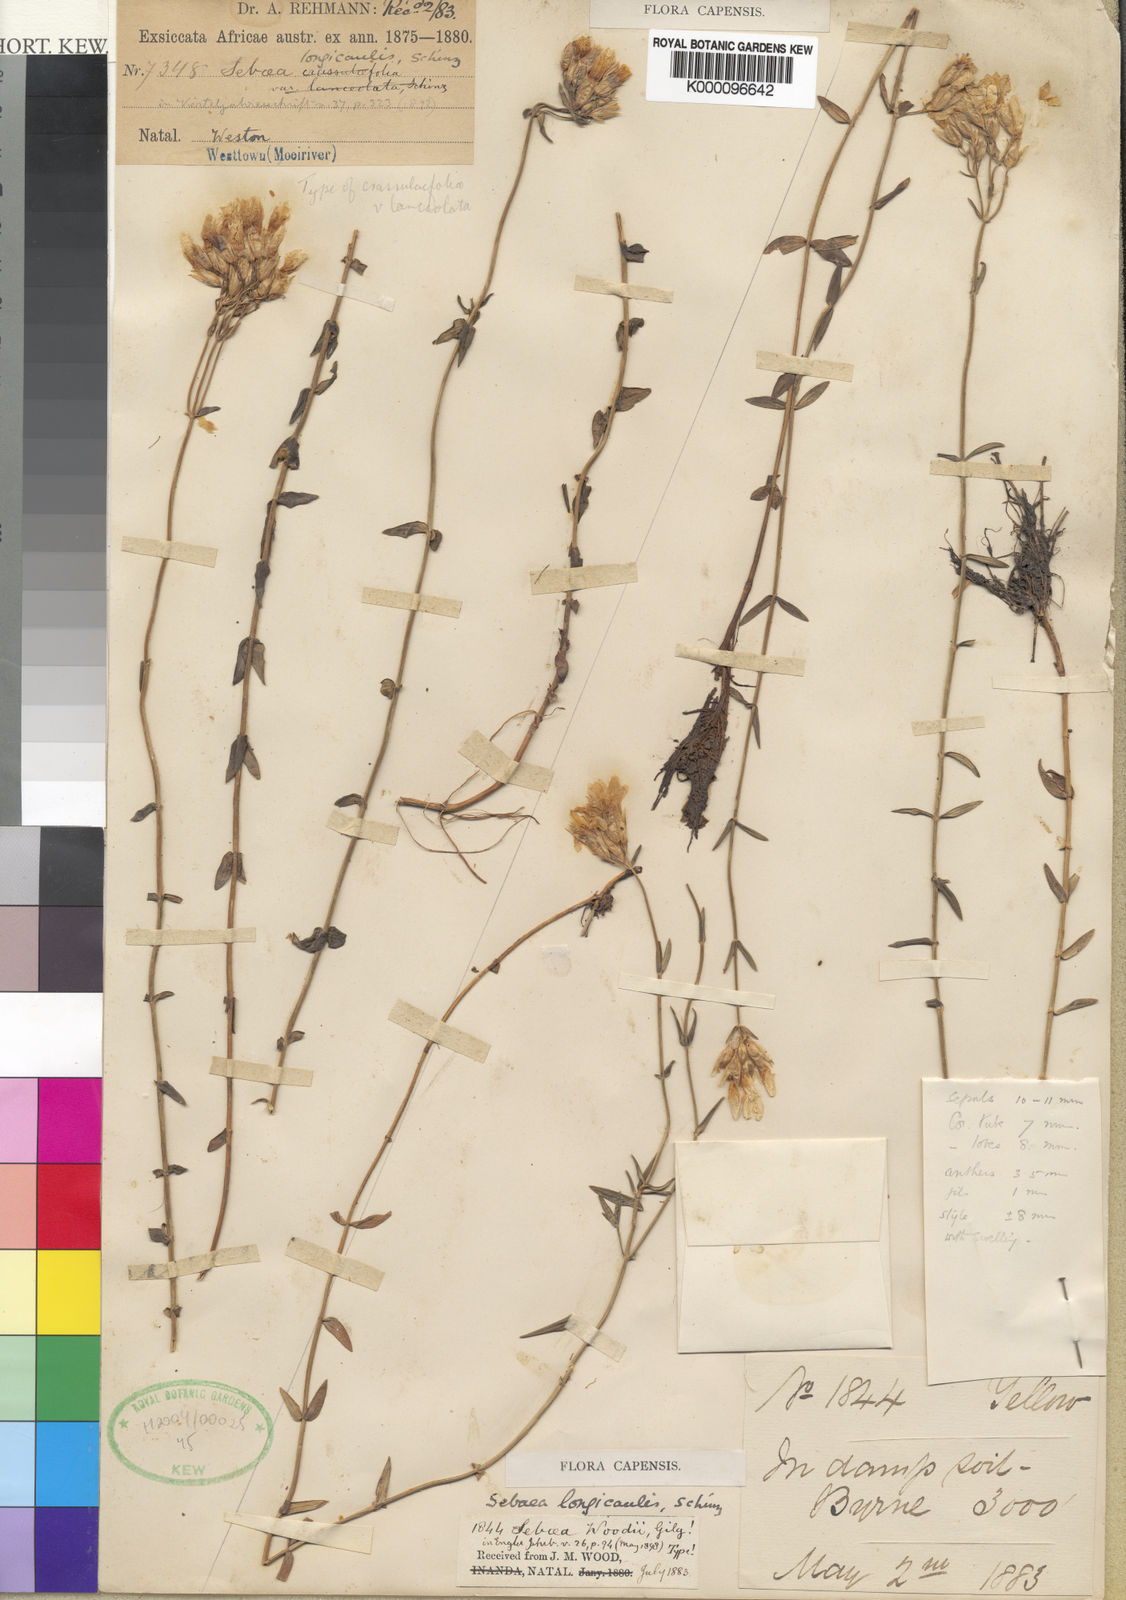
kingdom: Plantae
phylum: Tracheophyta
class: Magnoliopsida
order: Gentianales
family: Gentianaceae
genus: Sebaea
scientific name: Sebaea longicaulis
